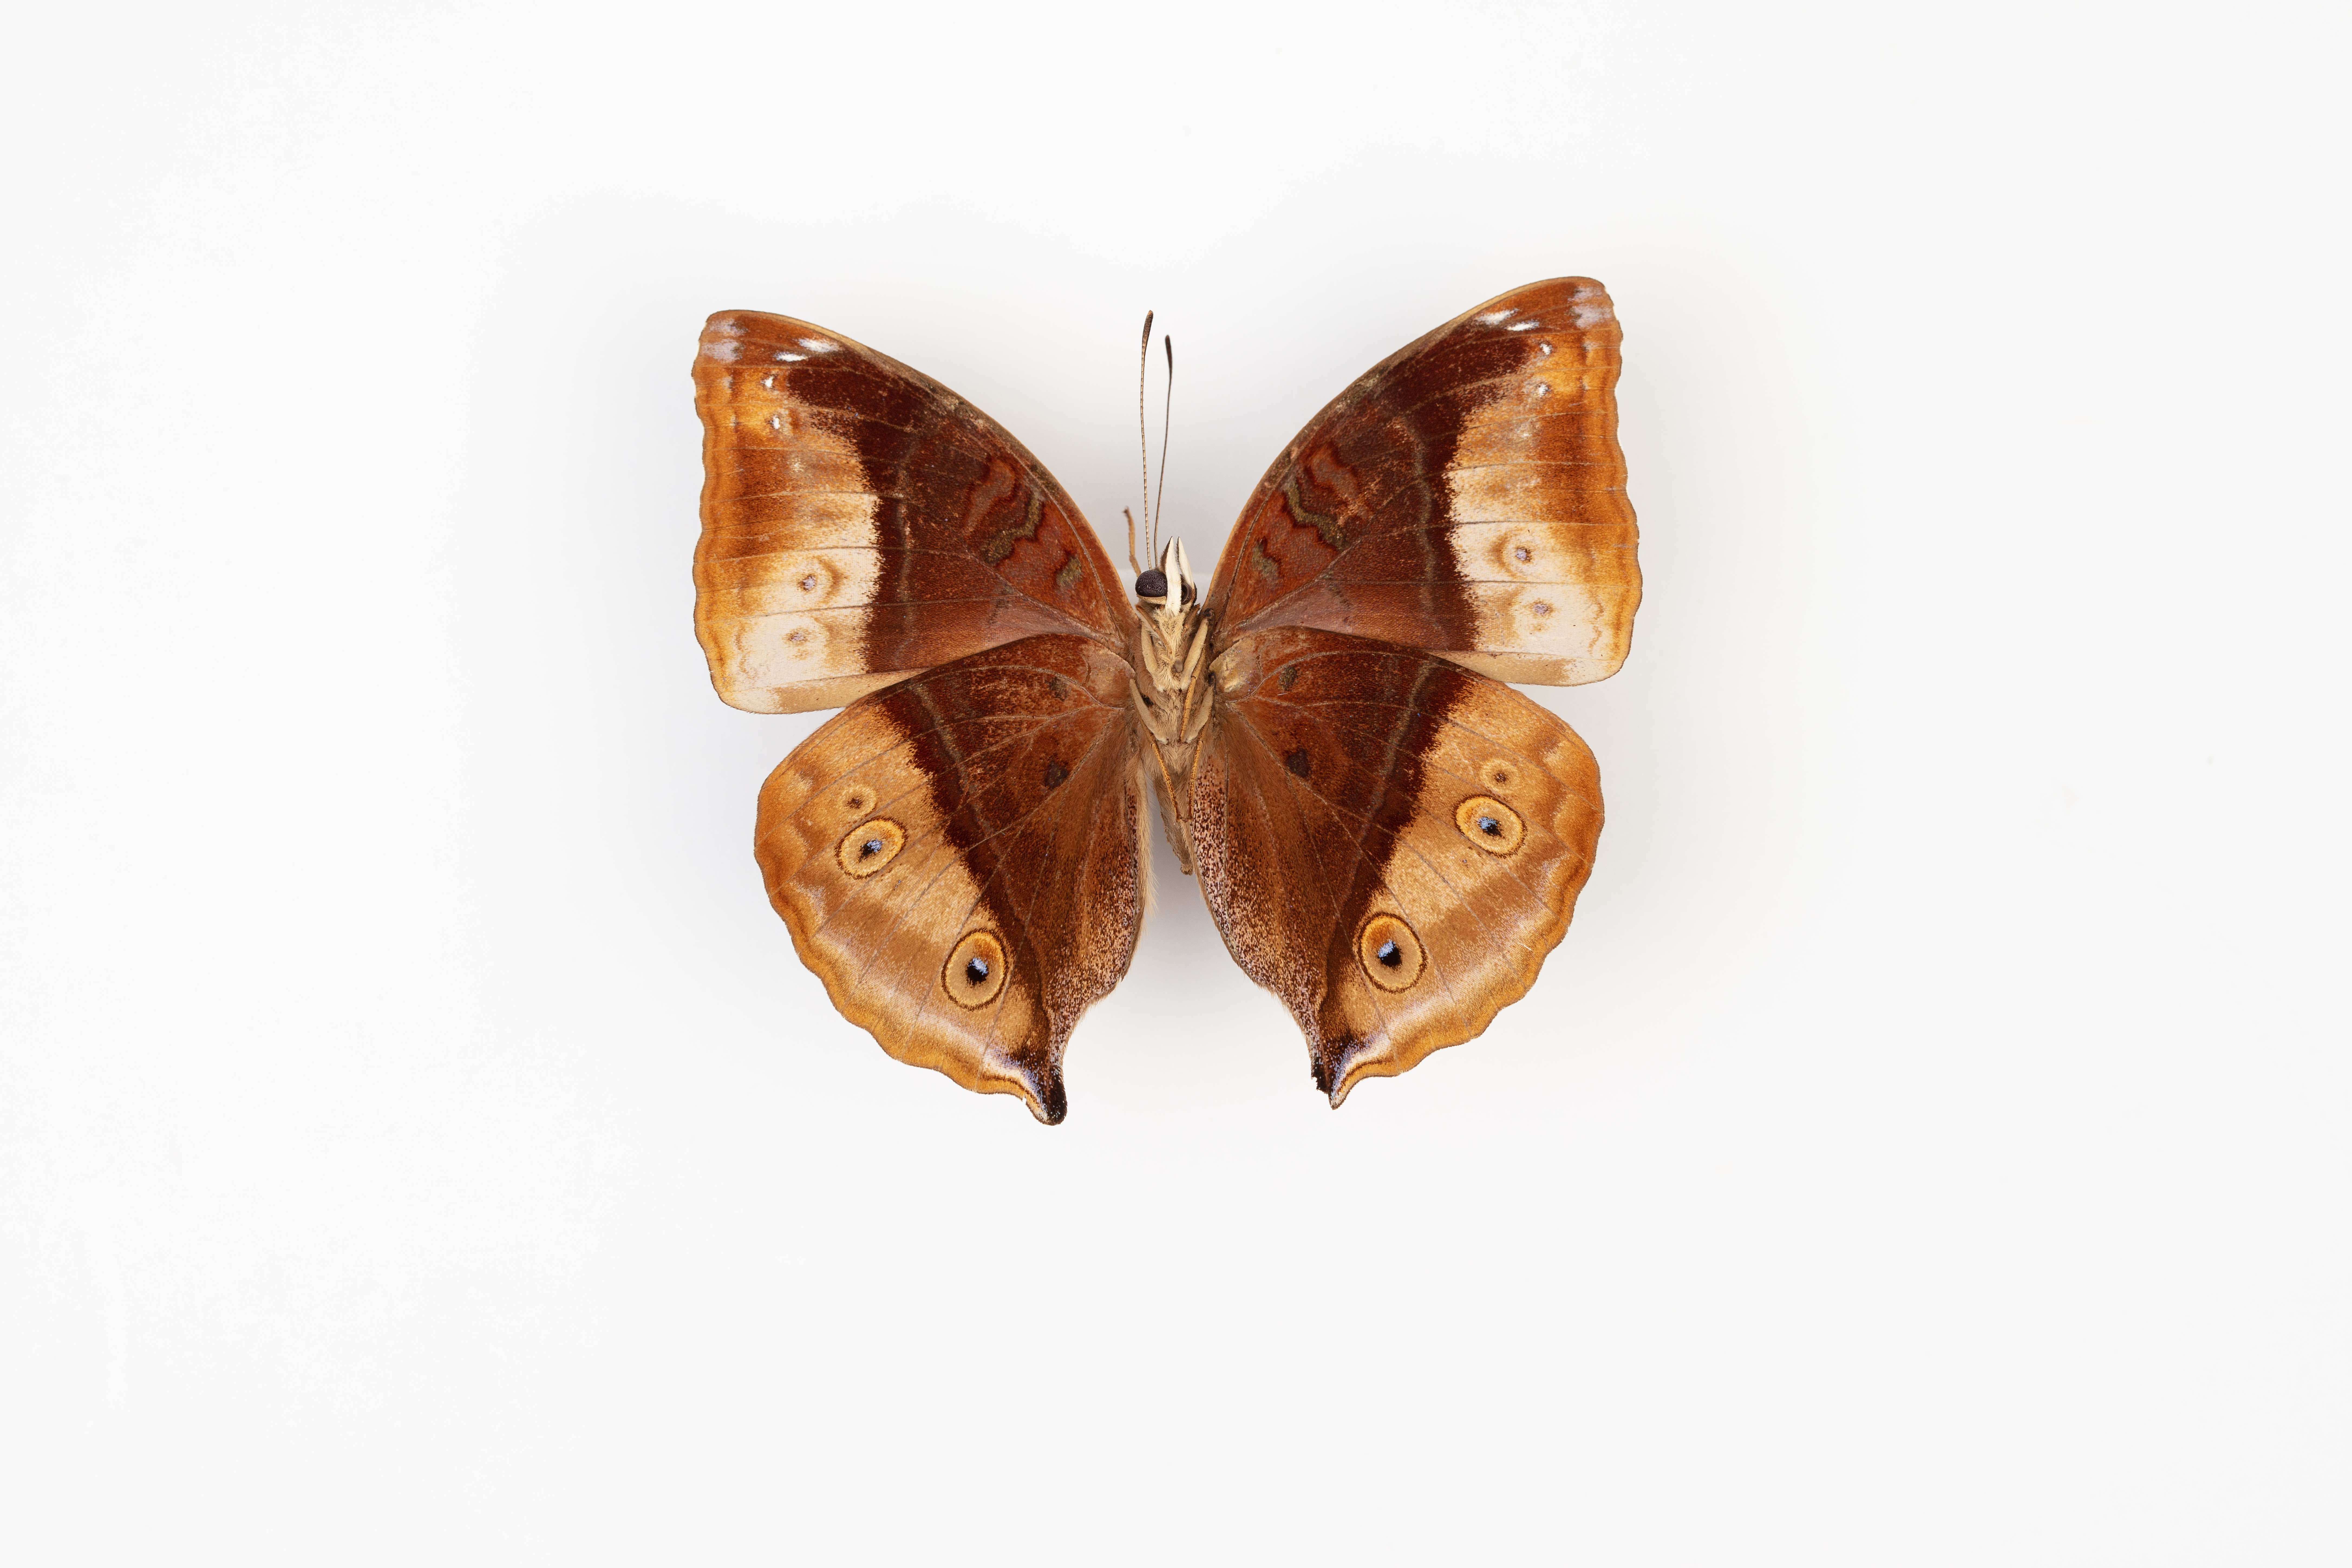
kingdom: Animalia
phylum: Arthropoda
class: Insecta
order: Lepidoptera
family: Nymphalidae
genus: Doleschallia
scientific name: Doleschallia dascon
